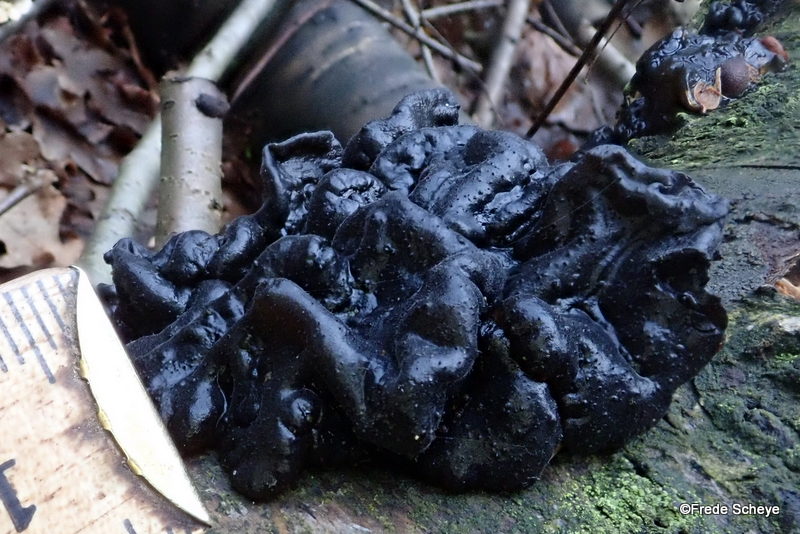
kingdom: Fungi
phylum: Basidiomycota
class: Agaricomycetes
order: Auriculariales
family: Auriculariaceae
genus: Exidia
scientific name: Exidia nigricans
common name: almindelig bævretop
